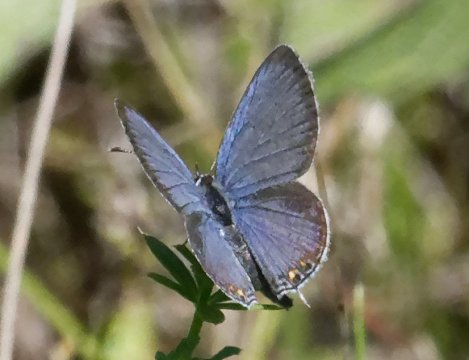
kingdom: Animalia
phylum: Arthropoda
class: Insecta
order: Lepidoptera
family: Lycaenidae
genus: Elkalyce
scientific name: Elkalyce comyntas
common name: Eastern Tailed-Blue
